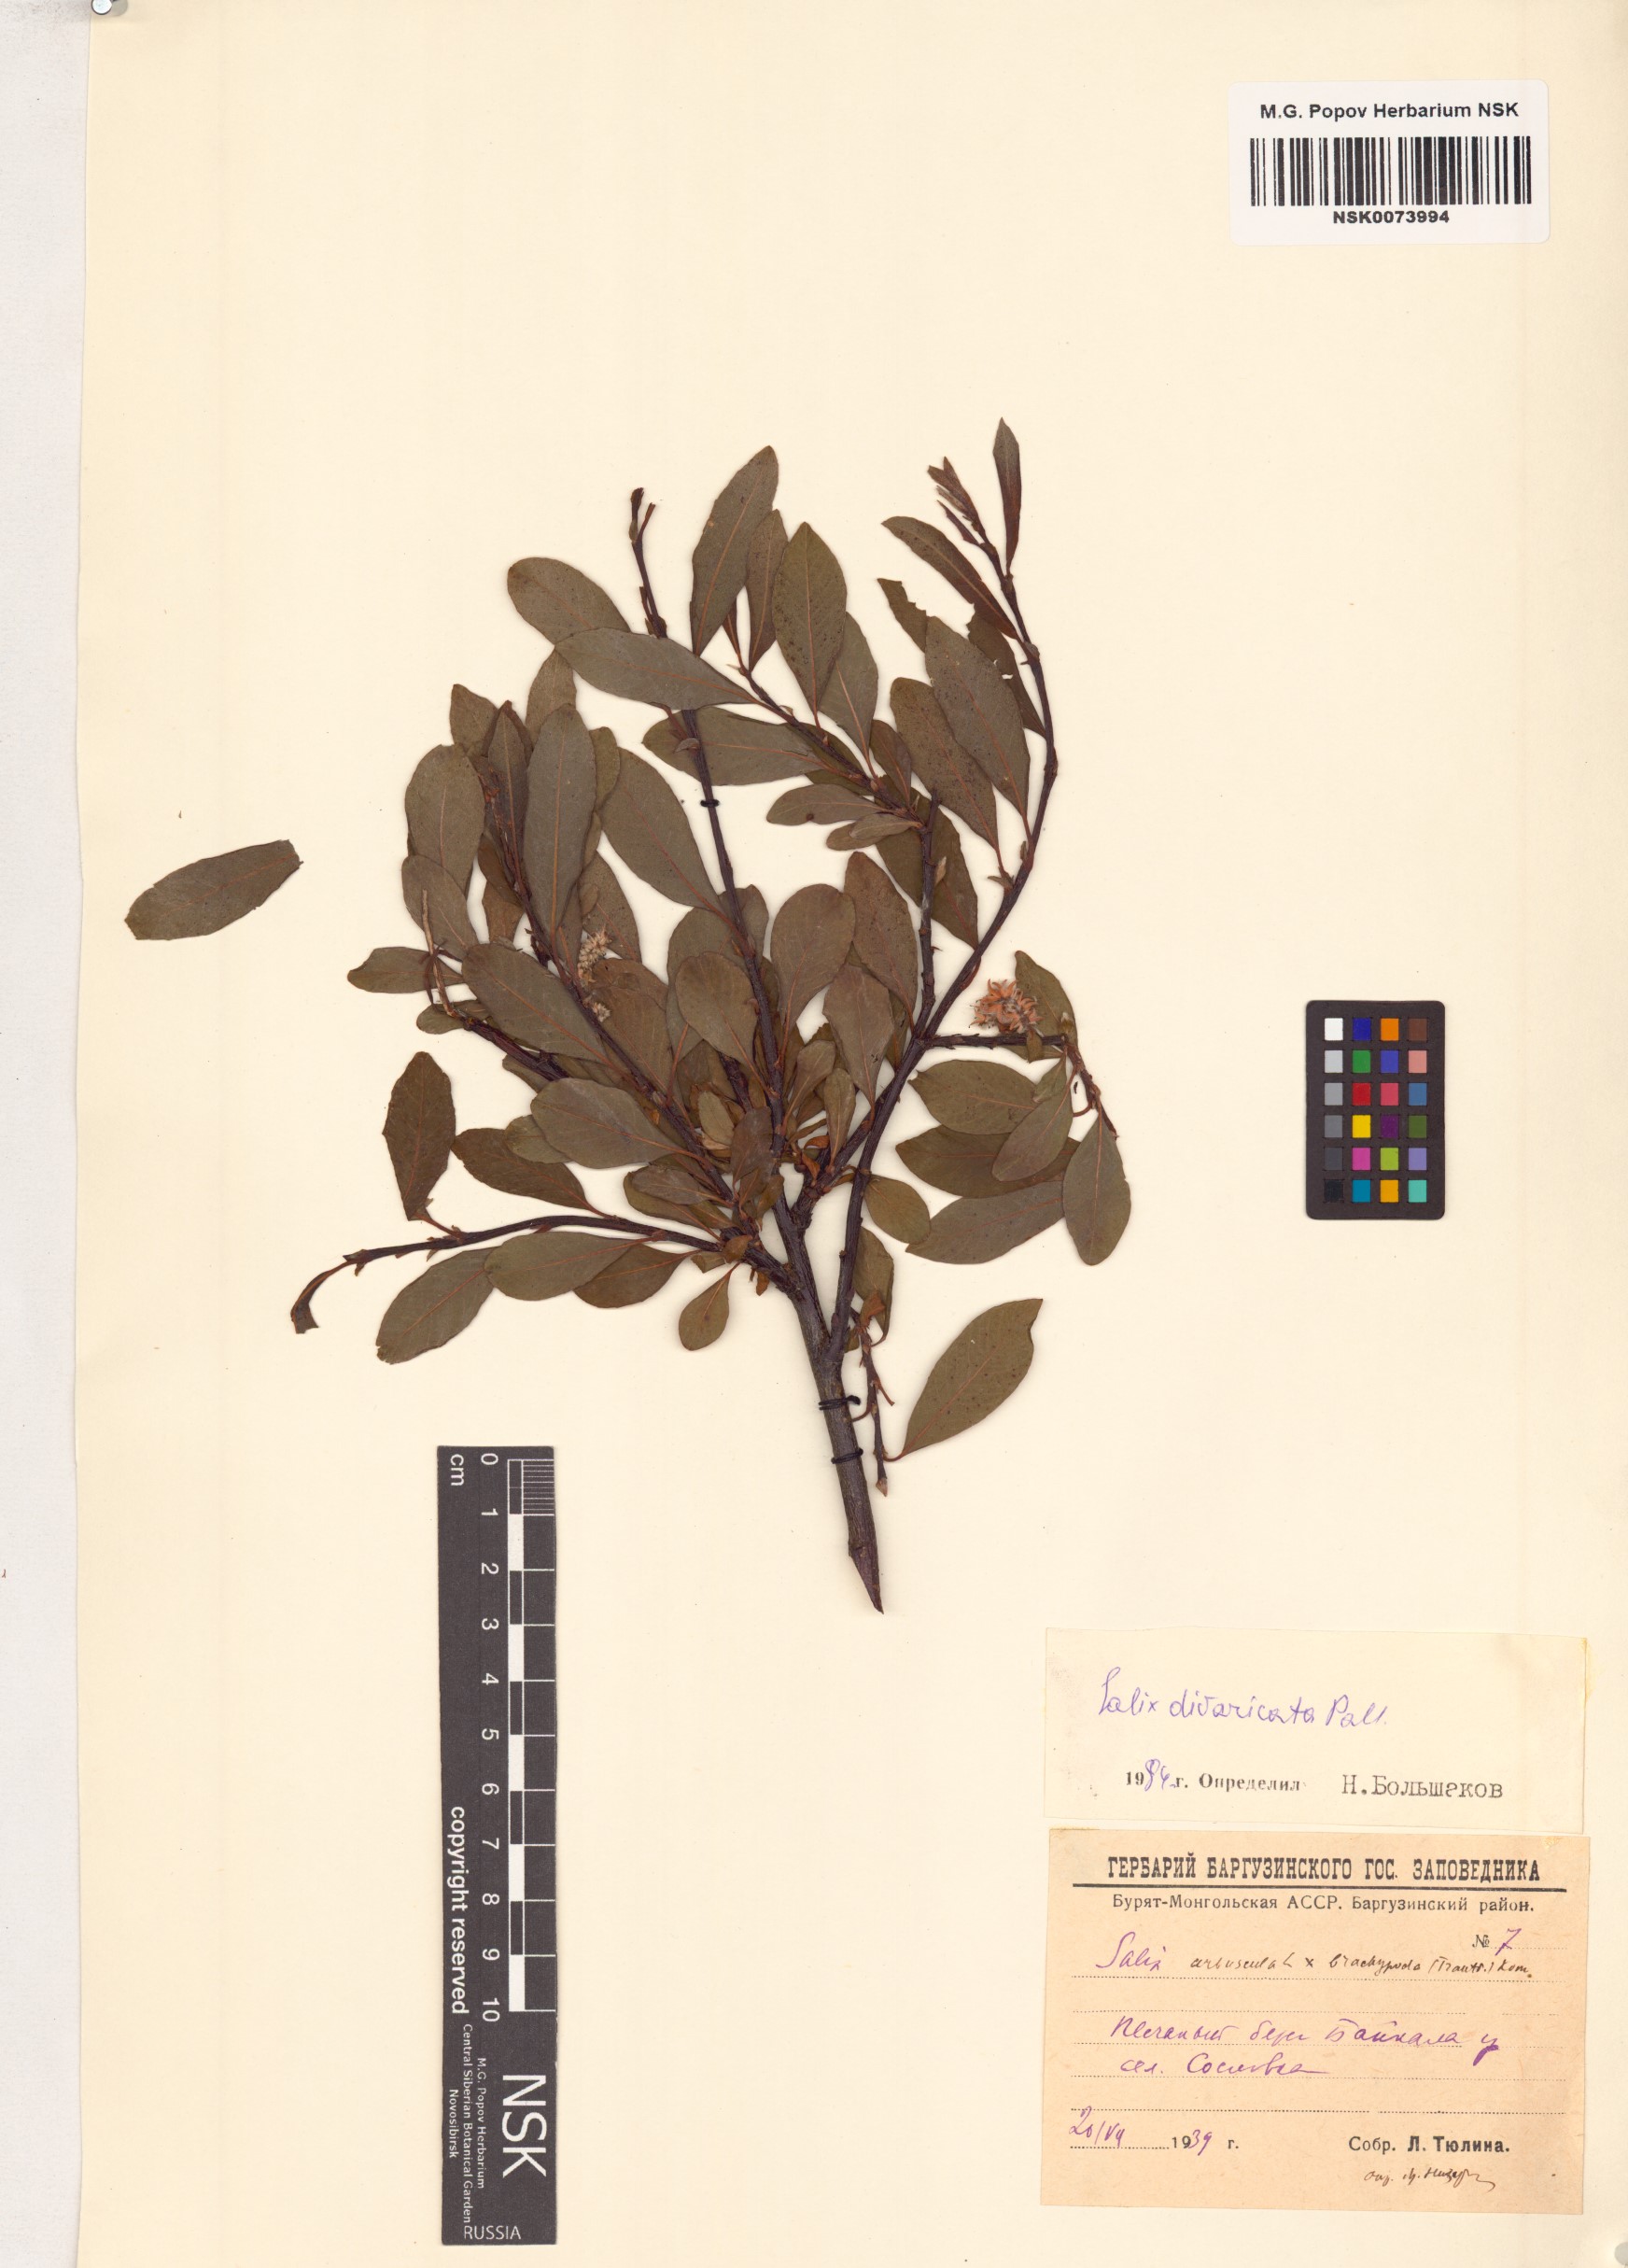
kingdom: Plantae
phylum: Tracheophyta
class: Magnoliopsida
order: Malpighiales
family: Salicaceae
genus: Salix
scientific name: Salix divaricata
